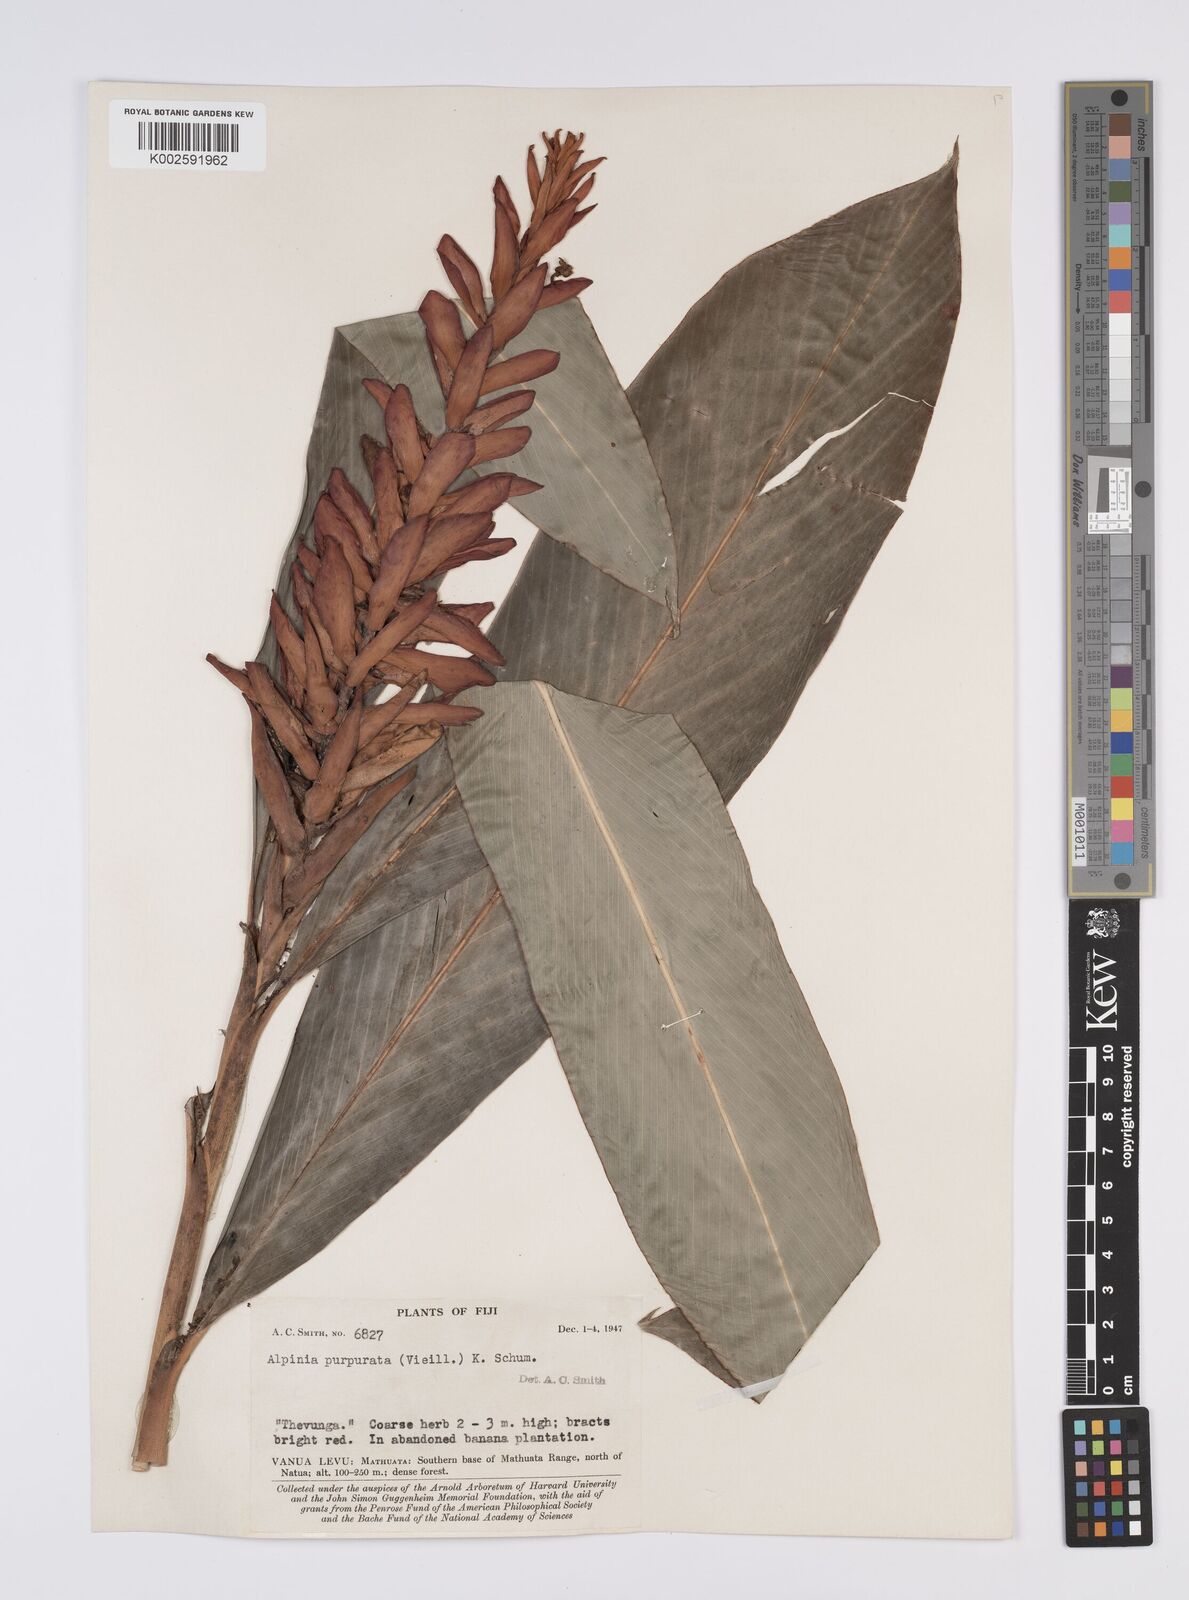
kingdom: Plantae
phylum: Tracheophyta
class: Liliopsida
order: Zingiberales
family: Zingiberaceae
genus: Alpinia
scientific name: Alpinia purpurata
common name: Red ginger
